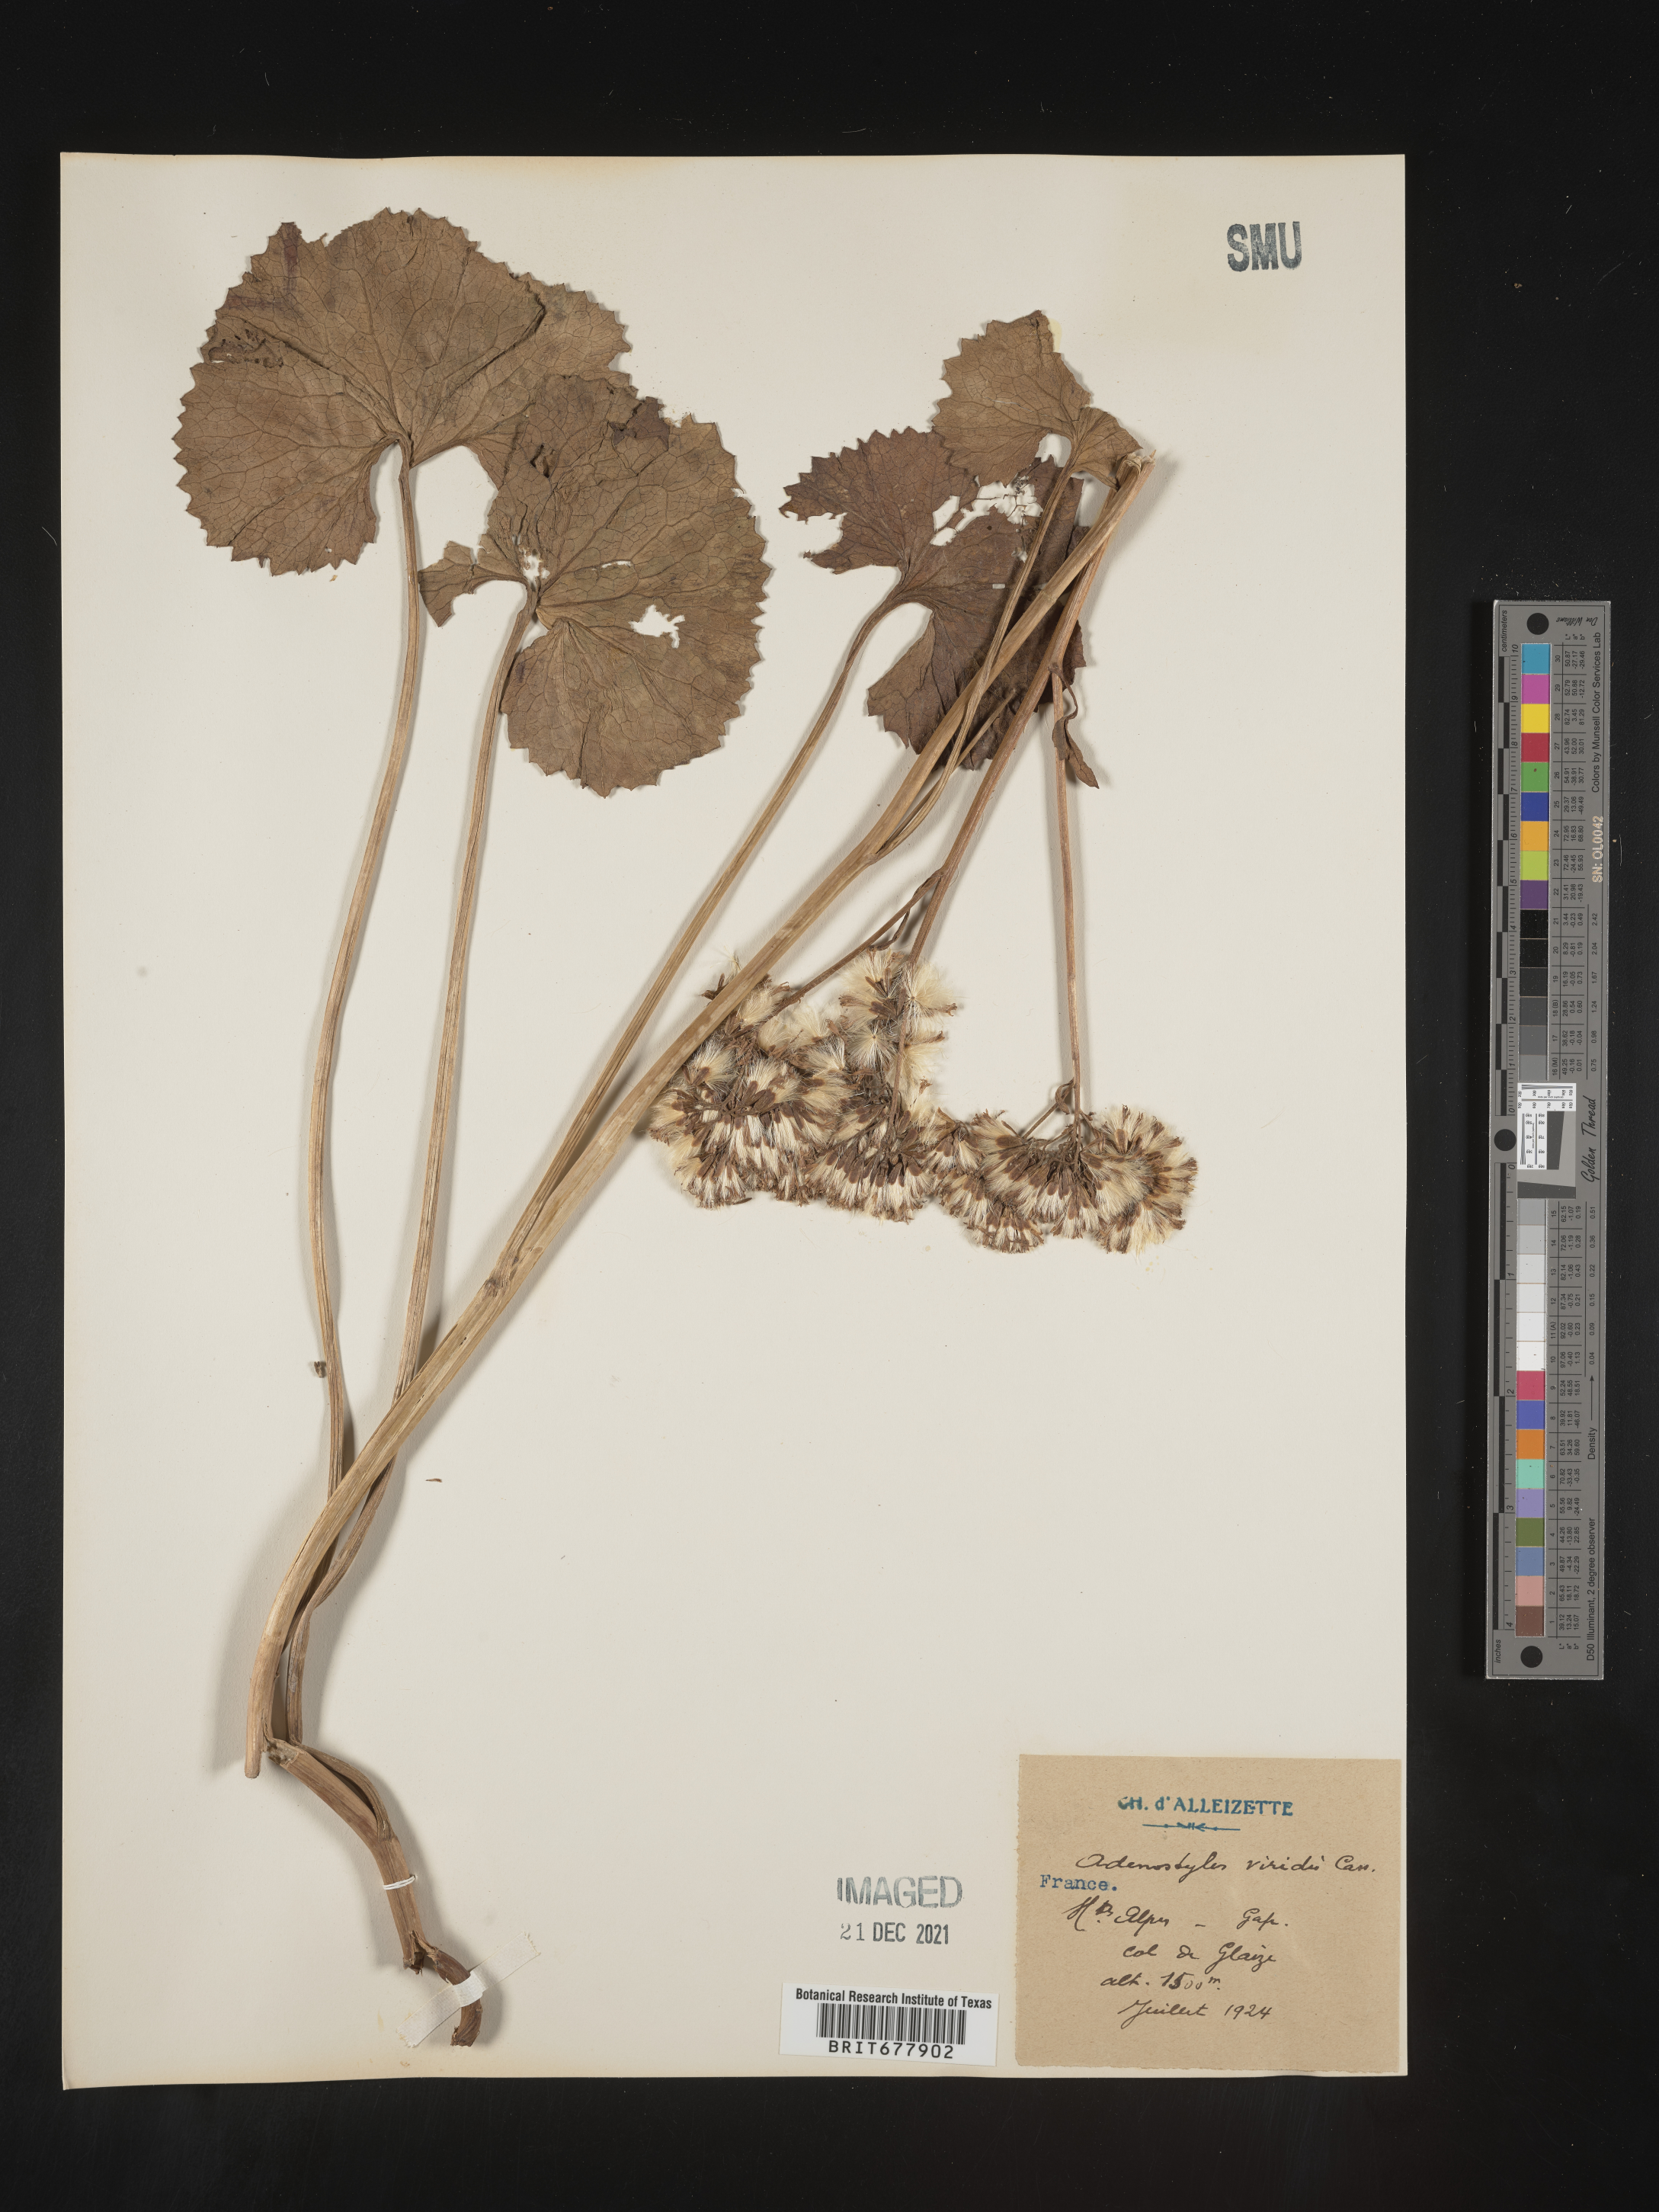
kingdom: Plantae
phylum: Tracheophyta
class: Magnoliopsida
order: Asterales
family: Asteraceae
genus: Adenostyles
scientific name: Adenostyles
